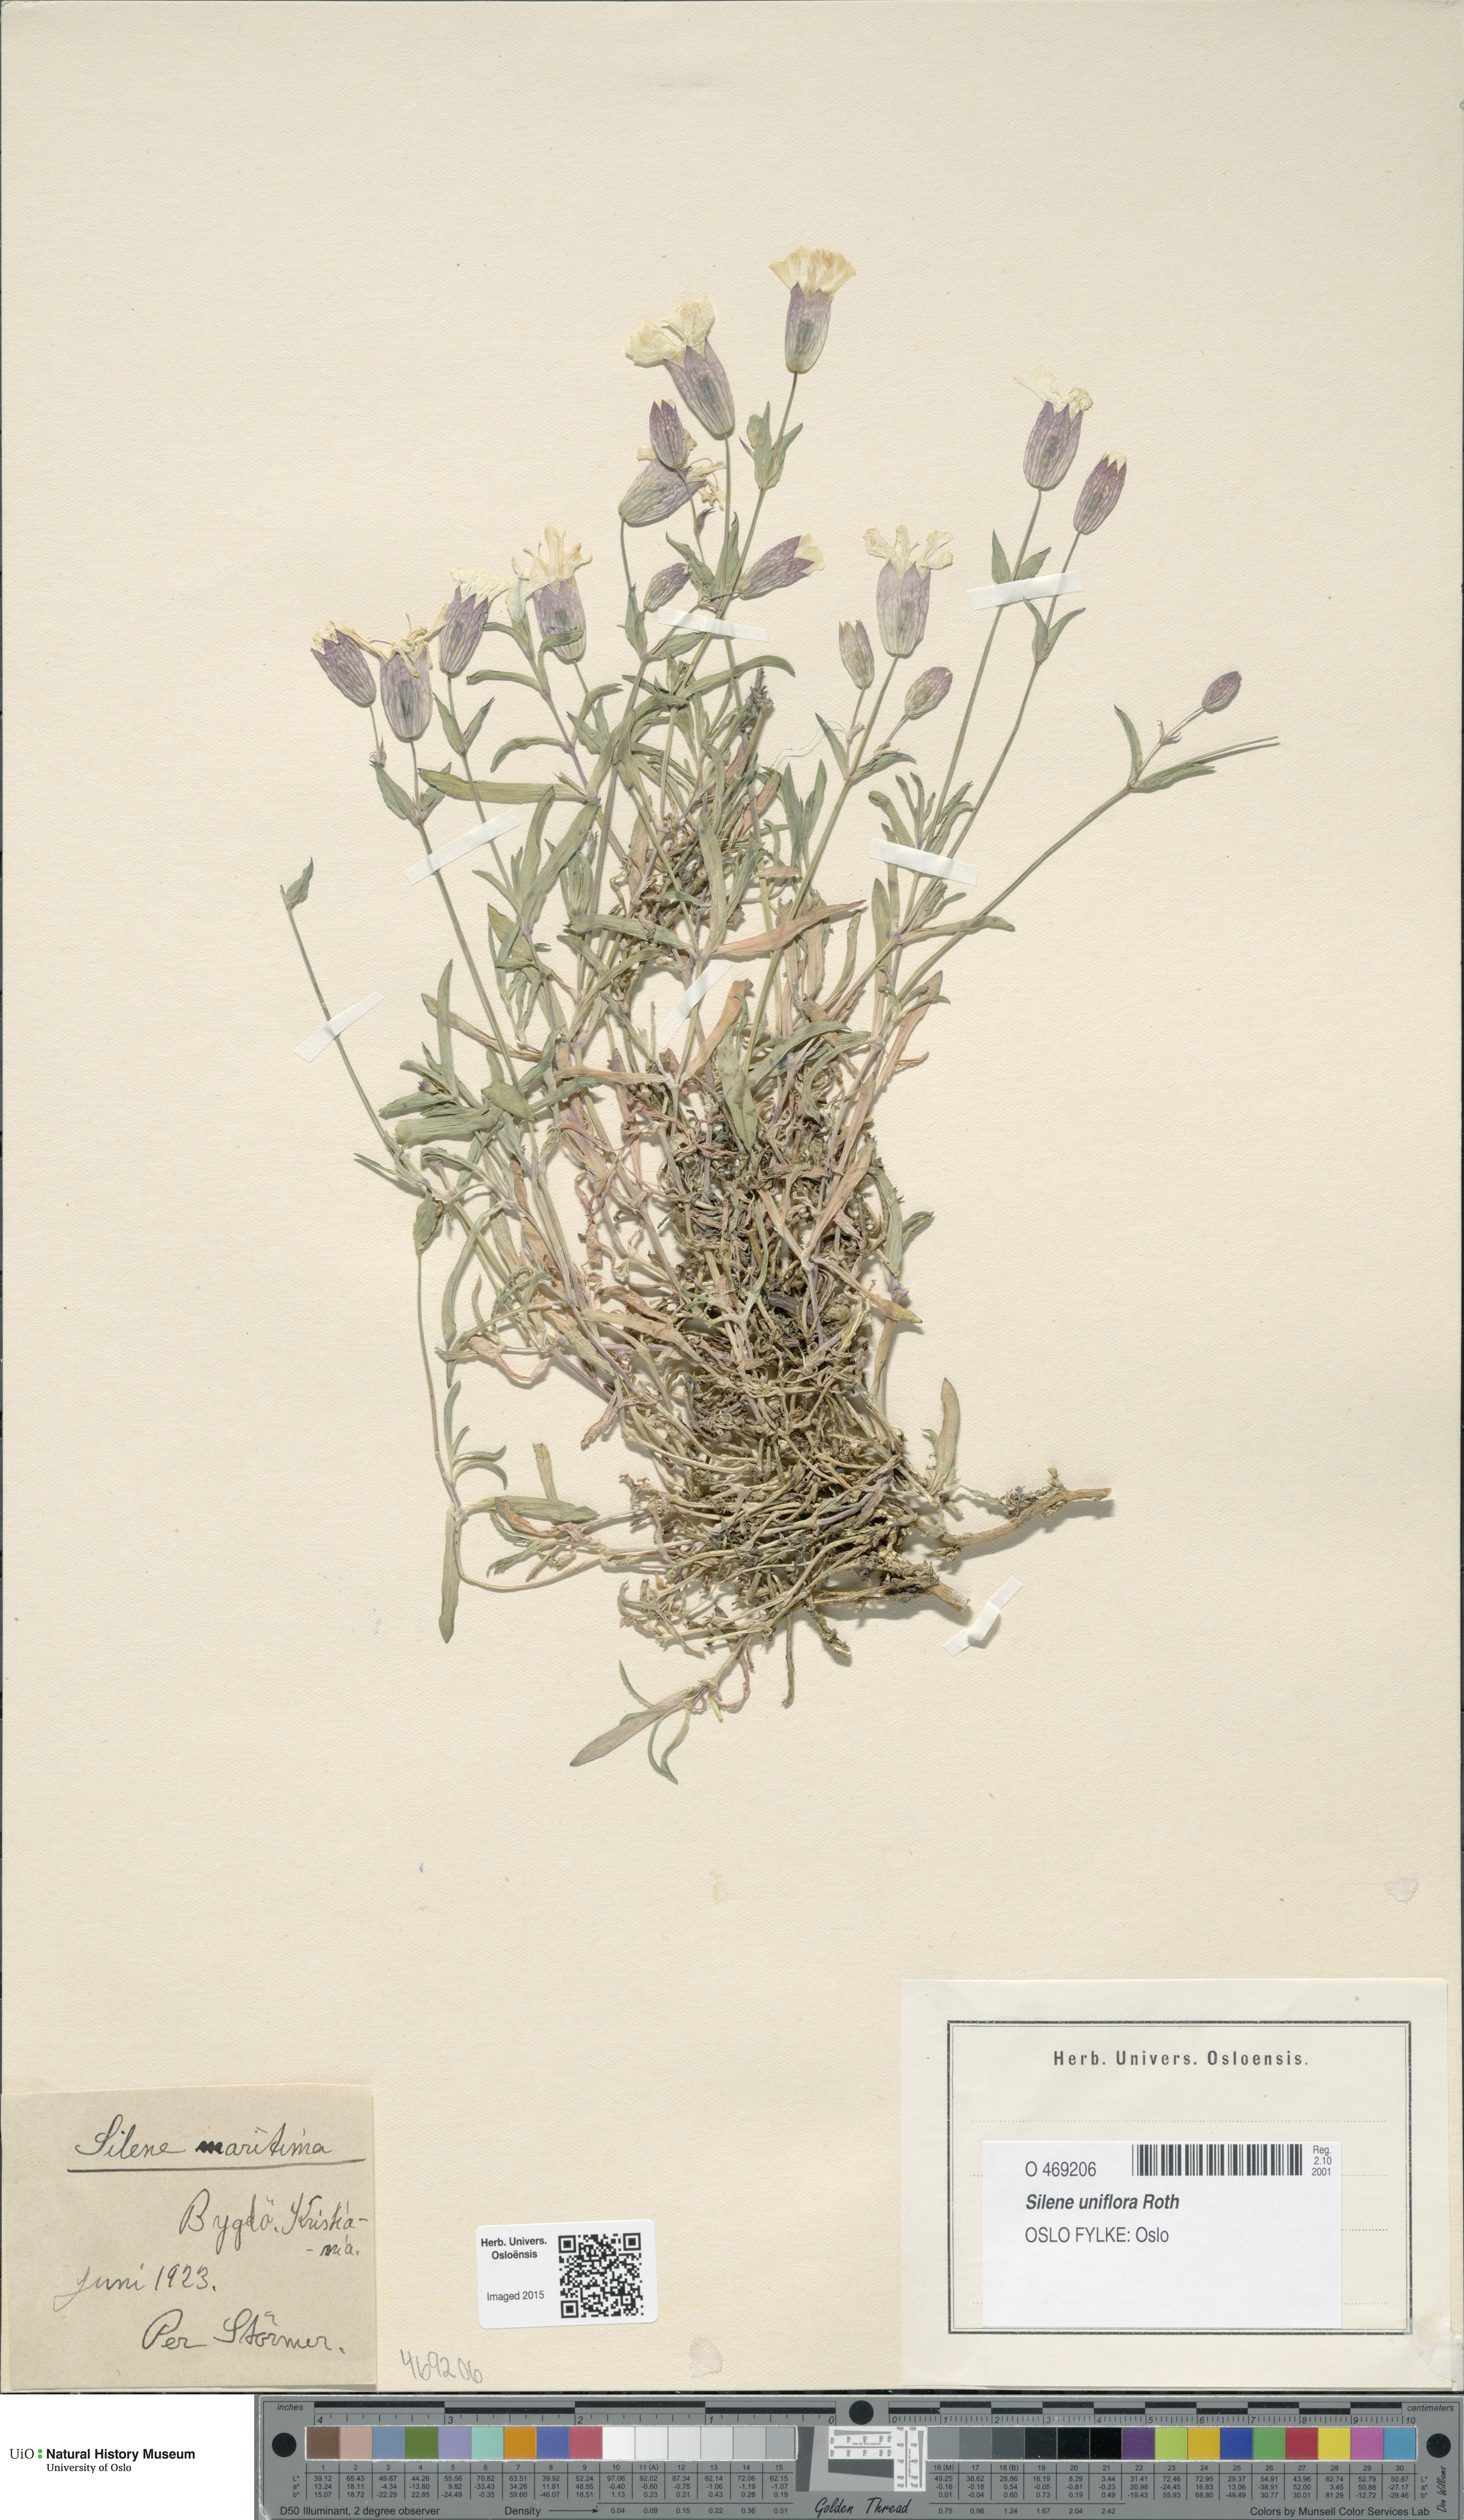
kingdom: Plantae
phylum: Tracheophyta
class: Magnoliopsida
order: Caryophyllales
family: Caryophyllaceae
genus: Silene
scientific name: Silene uniflora
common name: Sea campion
